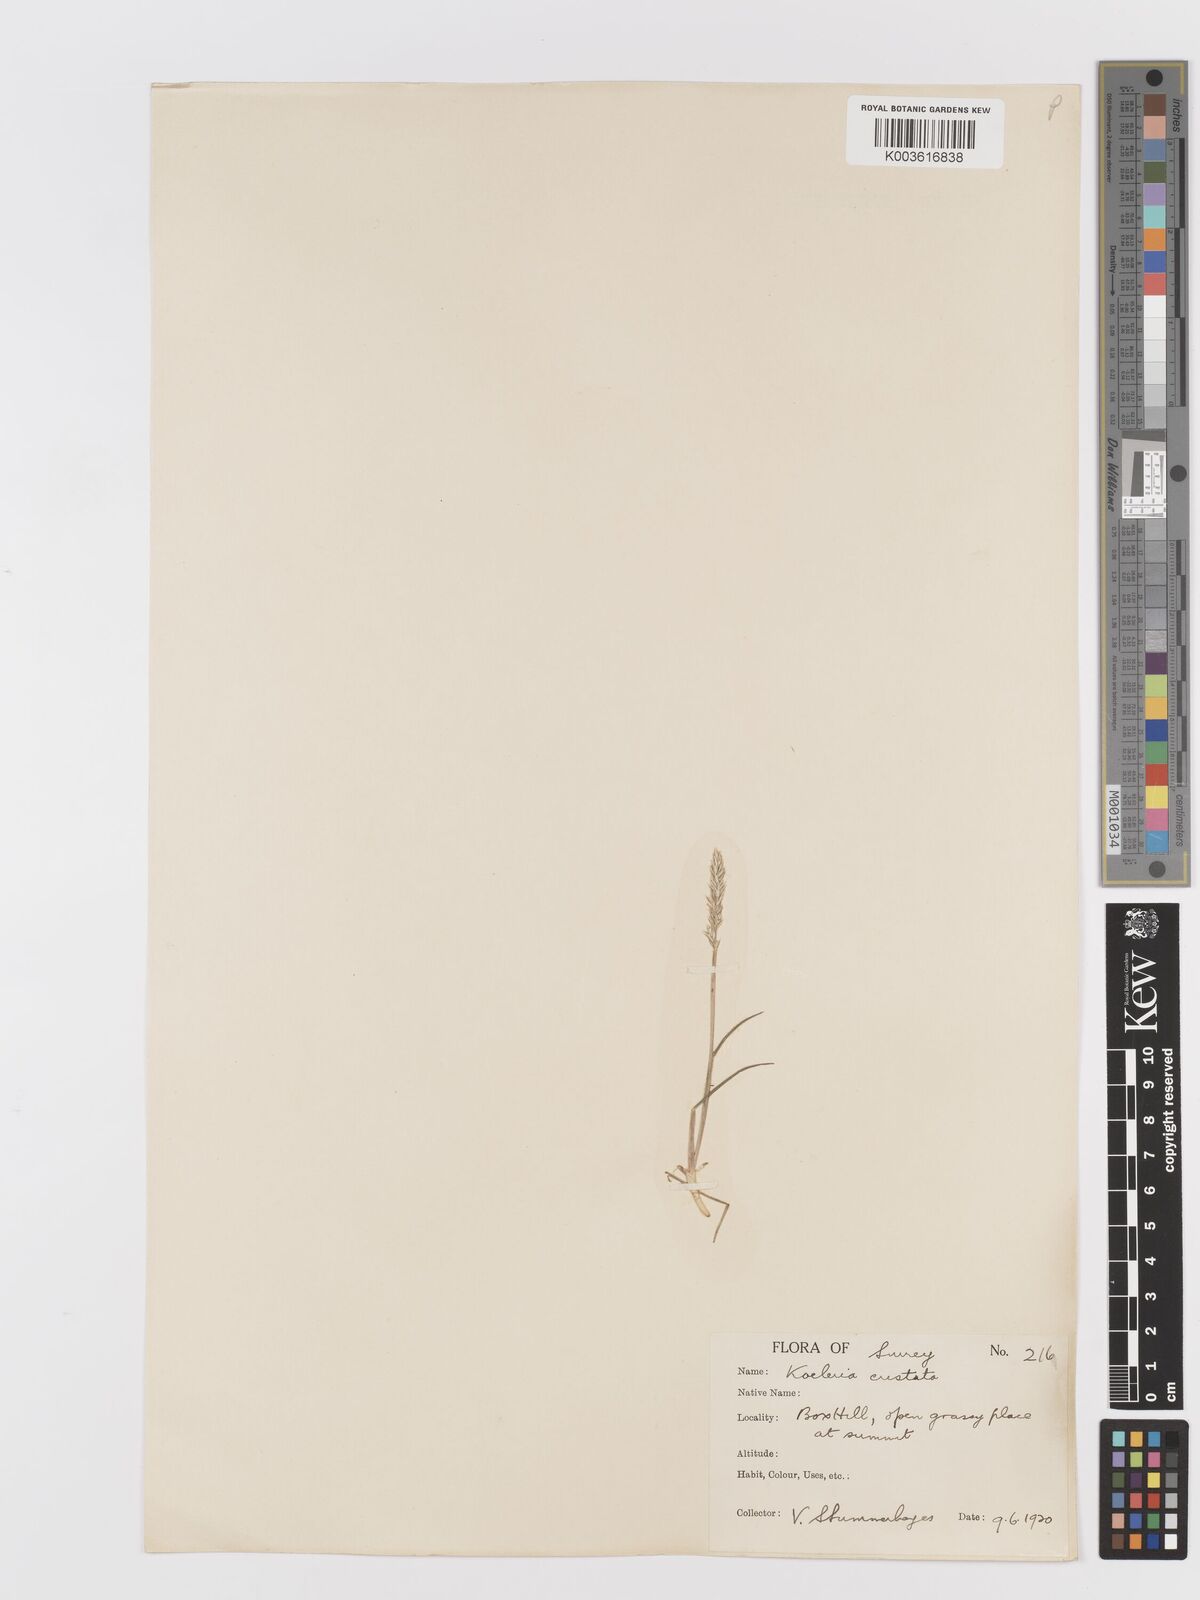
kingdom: Plantae
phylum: Tracheophyta
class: Liliopsida
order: Poales
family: Poaceae
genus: Koeleria
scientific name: Koeleria
